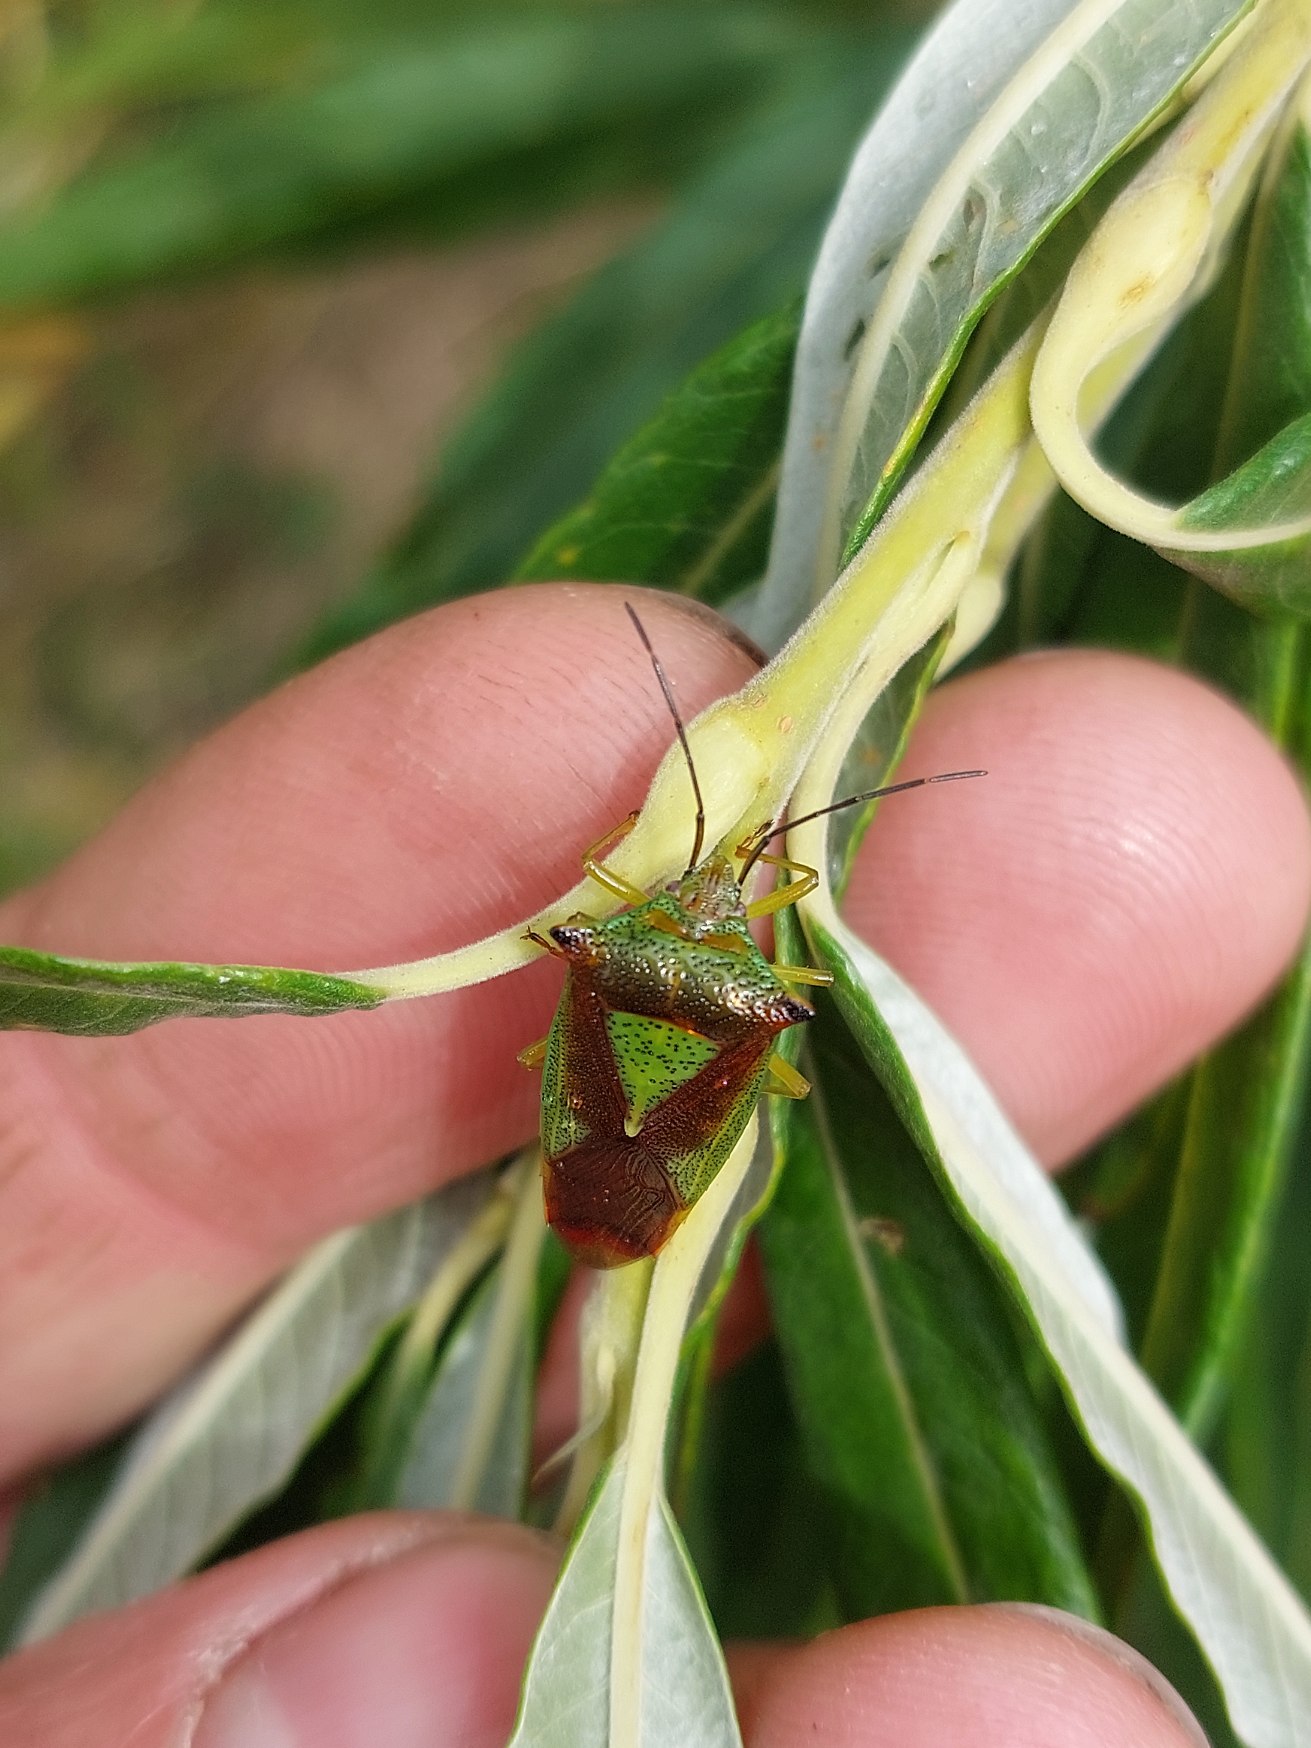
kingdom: Animalia
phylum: Arthropoda
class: Insecta
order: Hemiptera
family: Acanthosomatidae
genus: Acanthosoma
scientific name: Acanthosoma haemorrhoidale
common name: Stor løvtæge
